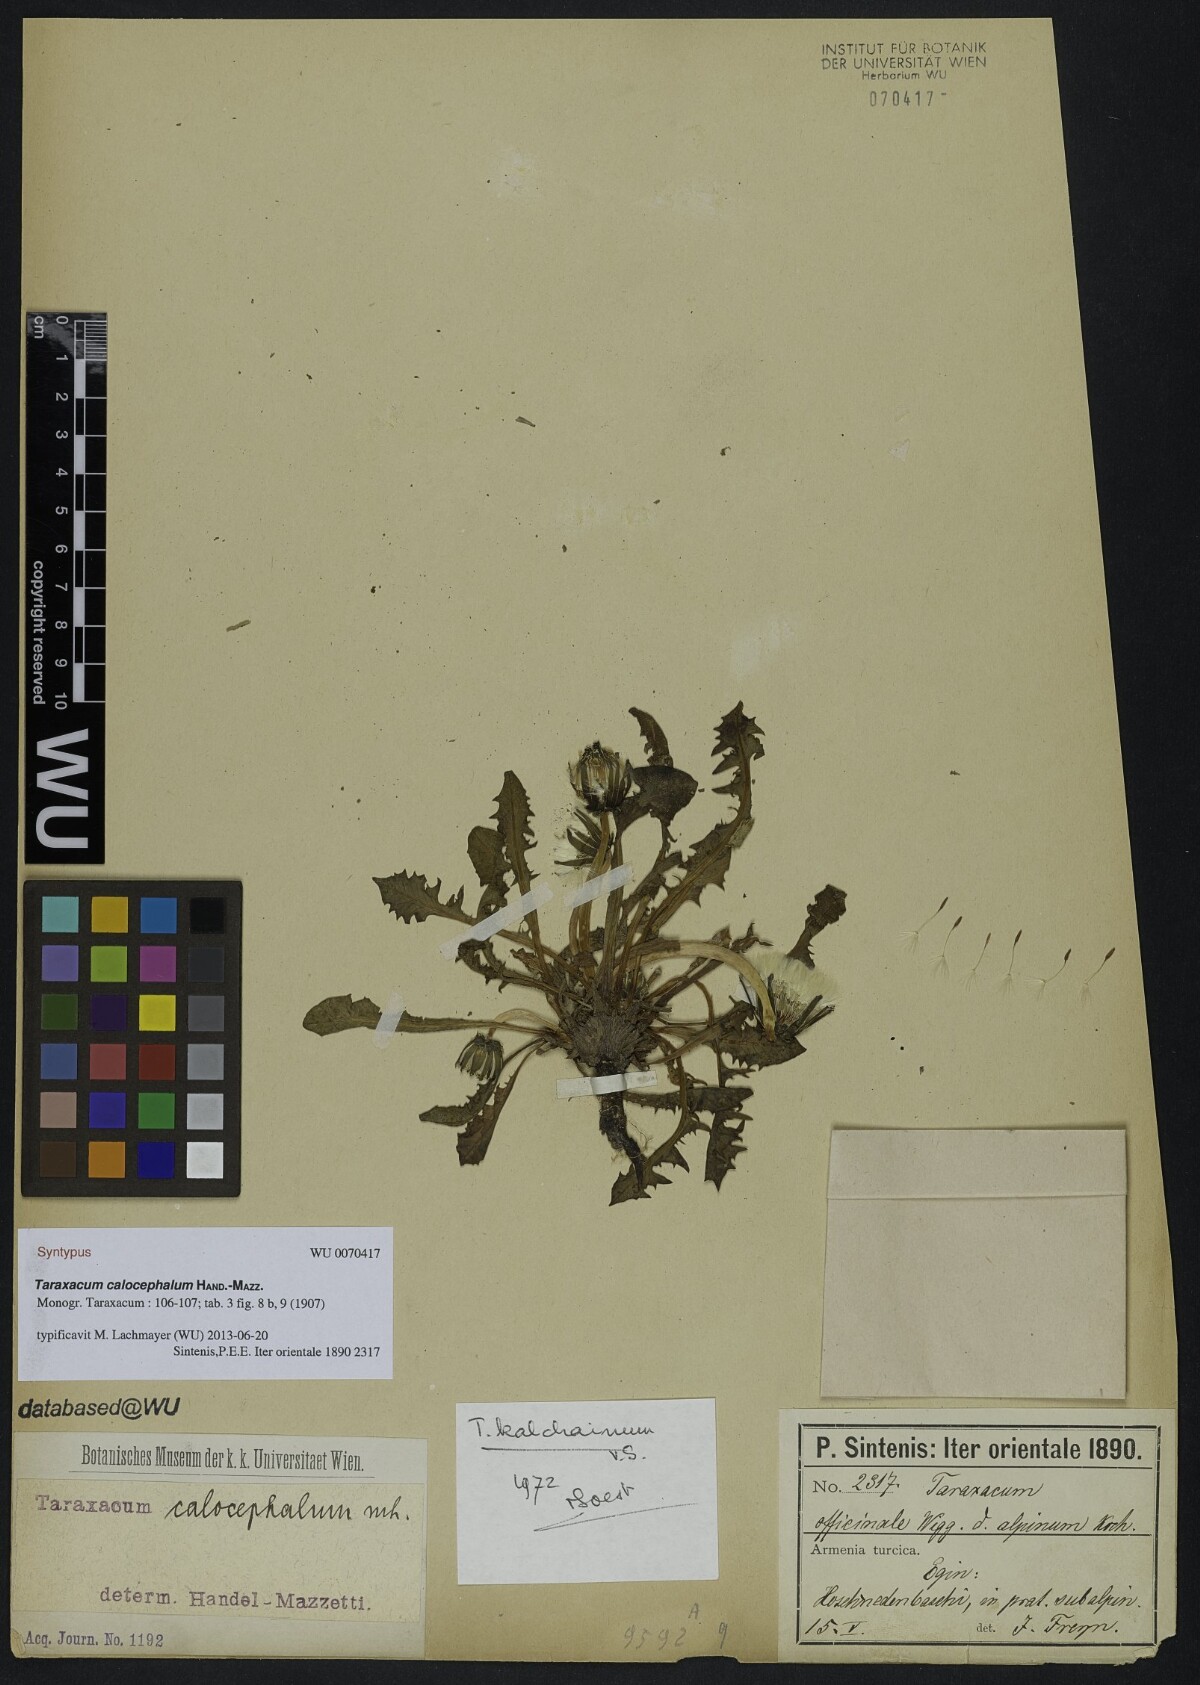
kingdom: Plantae
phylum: Tracheophyta
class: Magnoliopsida
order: Asterales
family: Asteraceae
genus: Taraxacum
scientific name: Taraxacum calocephalum
